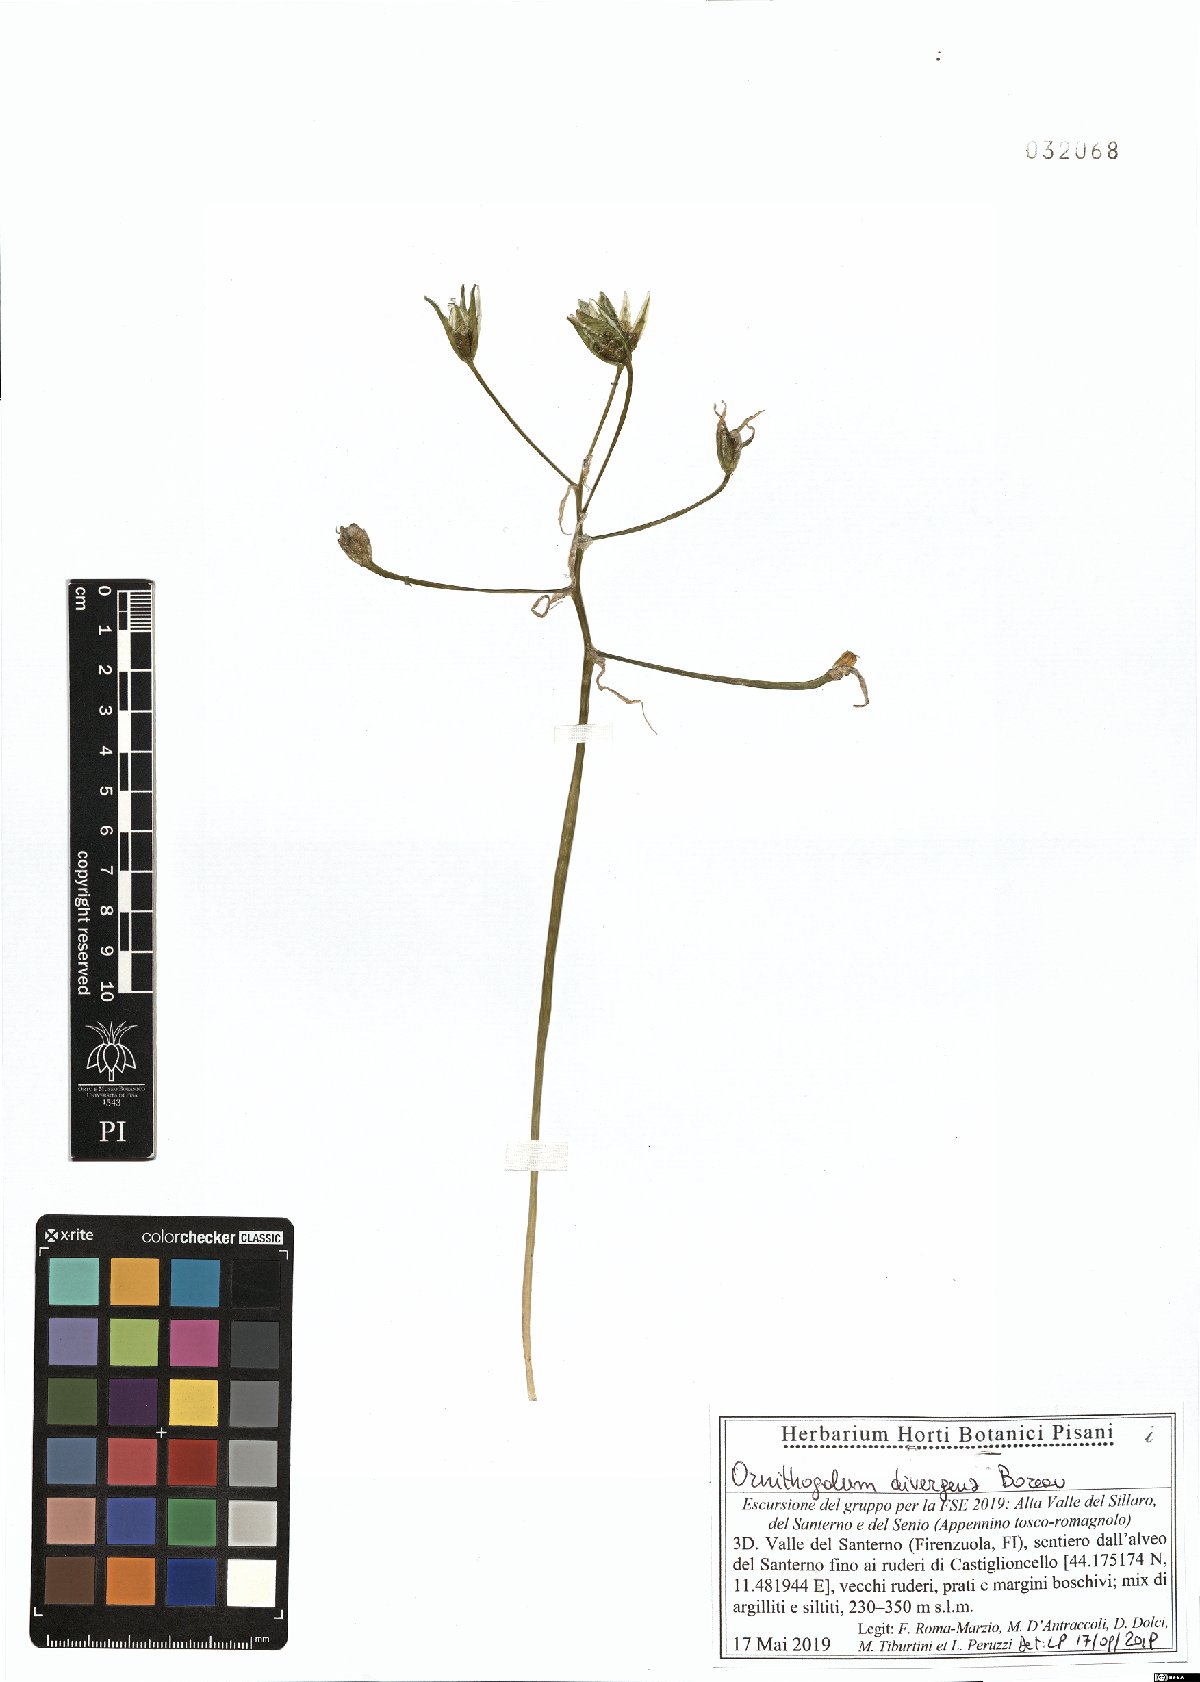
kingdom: Plantae
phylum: Tracheophyta
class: Liliopsida
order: Asparagales
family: Asparagaceae
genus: Ornithogalum
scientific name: Ornithogalum divergens
